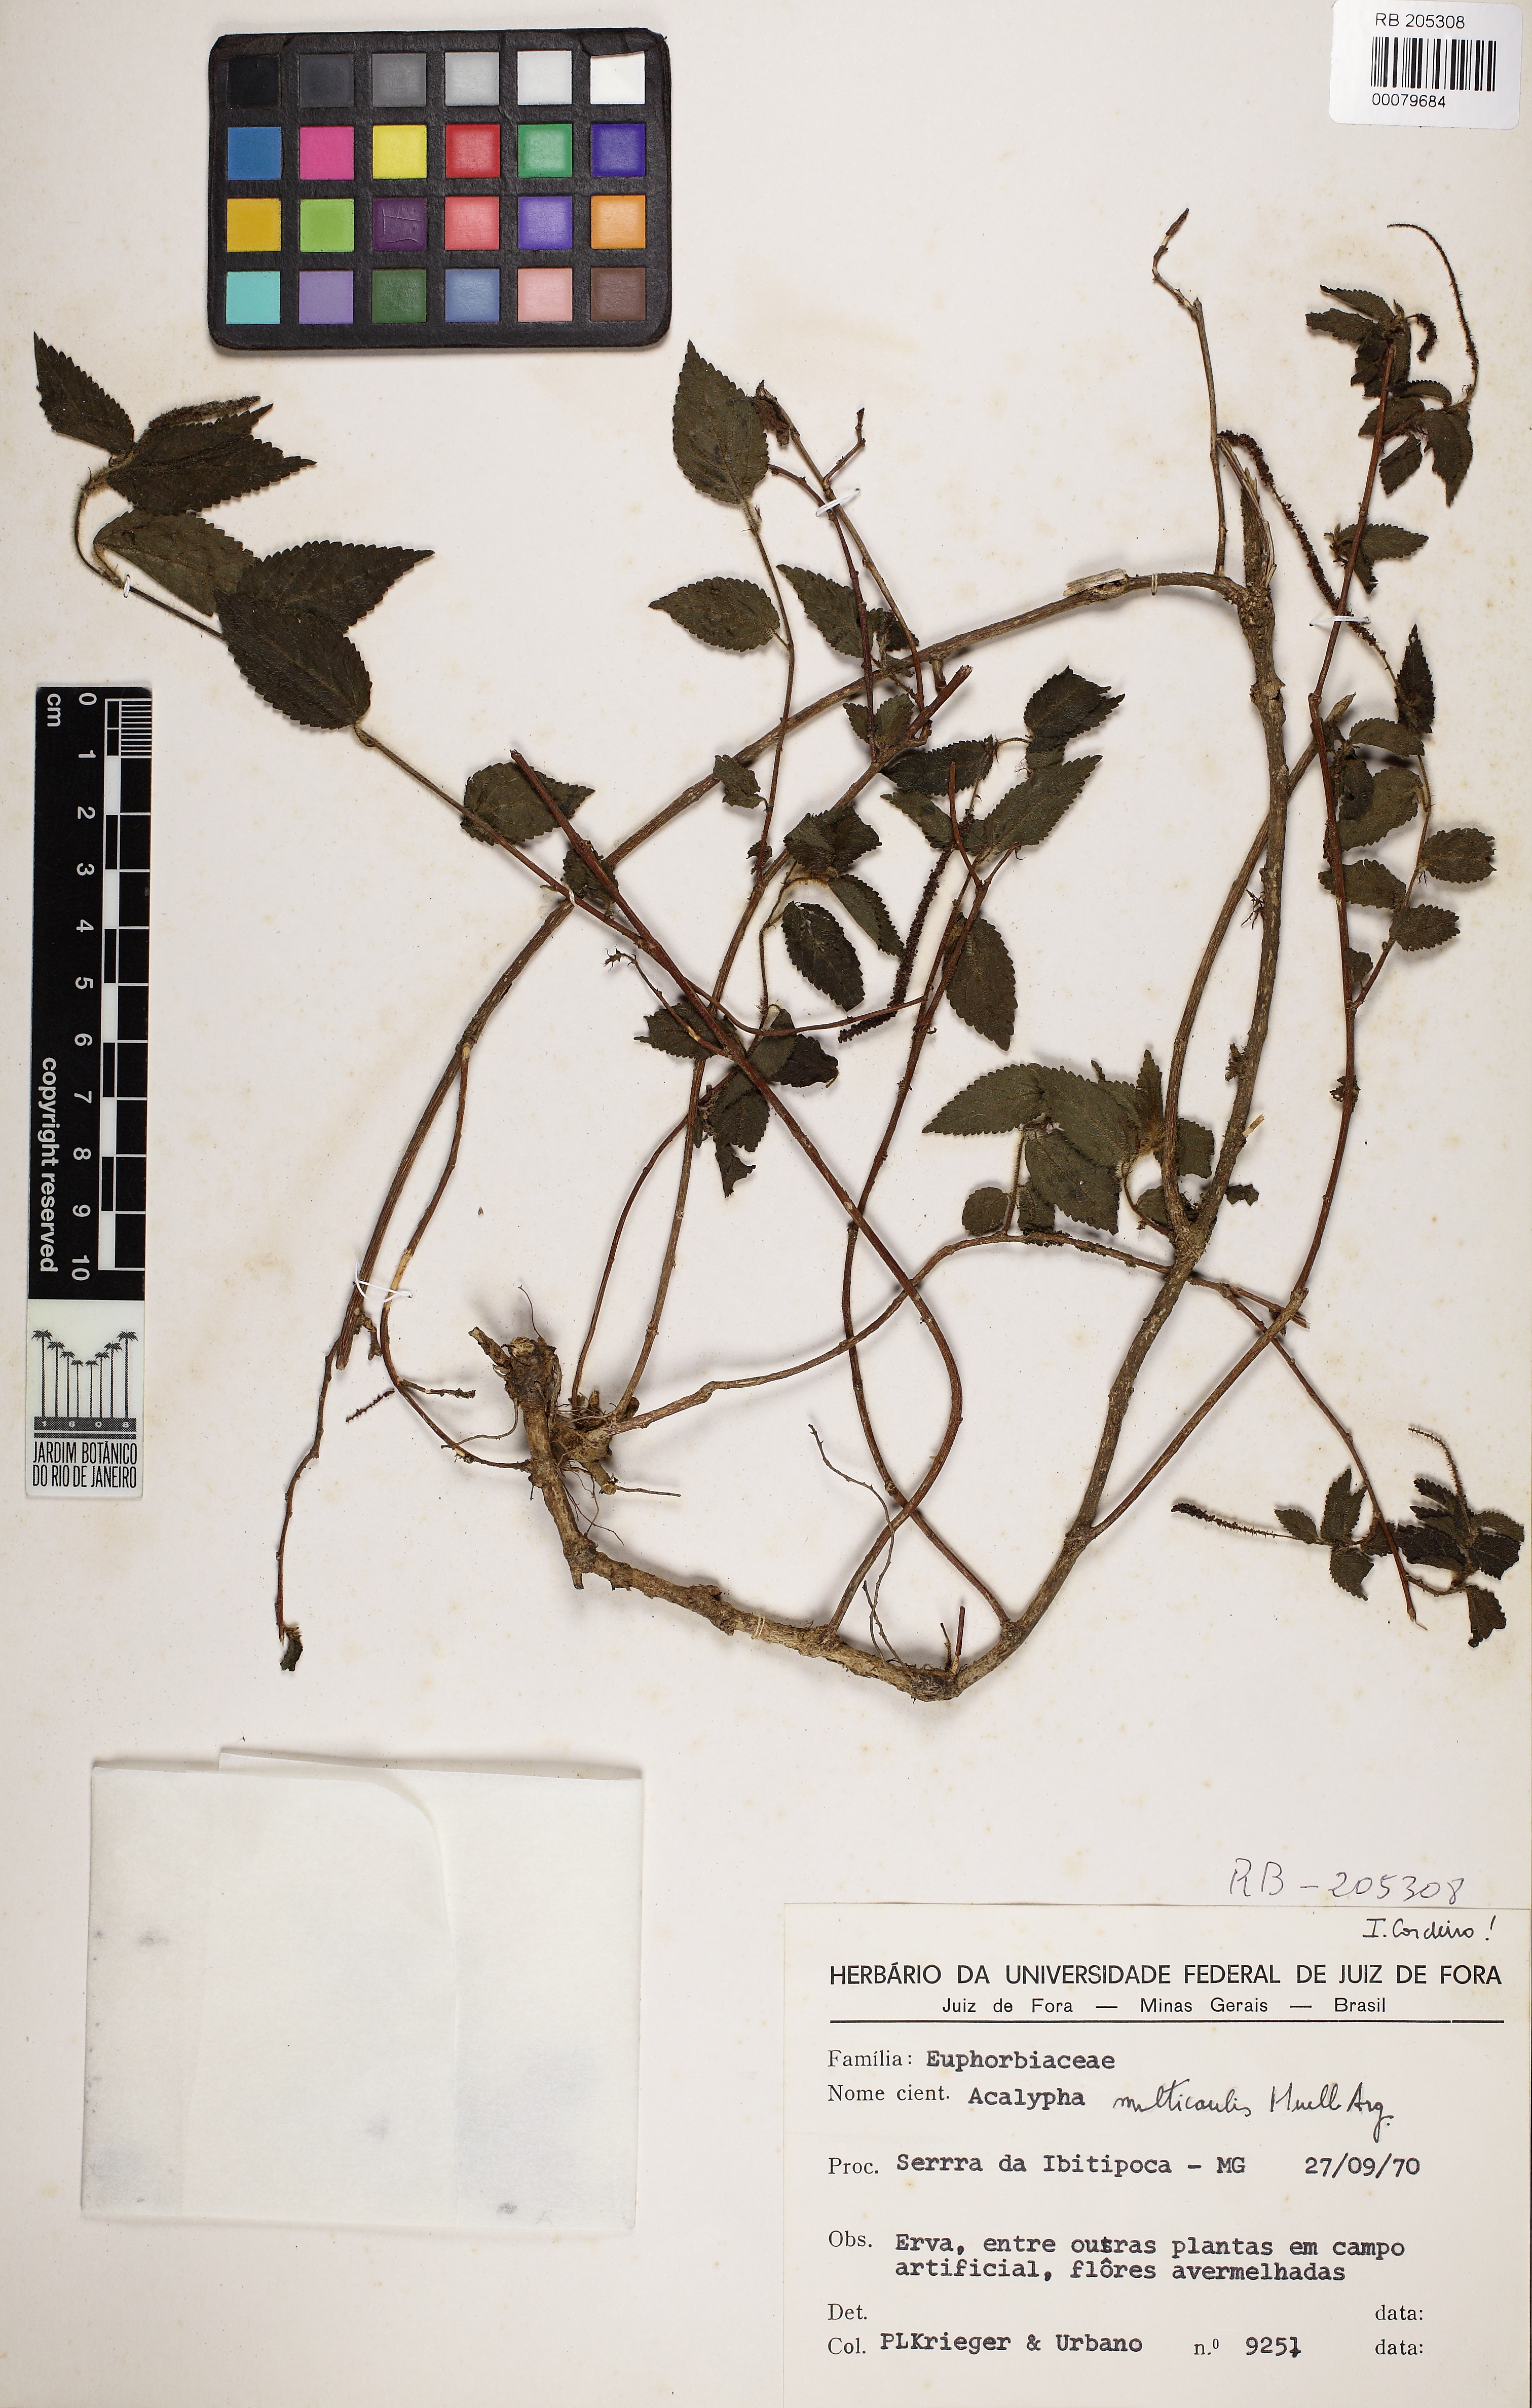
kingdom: Plantae
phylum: Tracheophyta
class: Magnoliopsida
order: Malpighiales
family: Euphorbiaceae
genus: Acalypha
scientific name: Acalypha multicaulis
